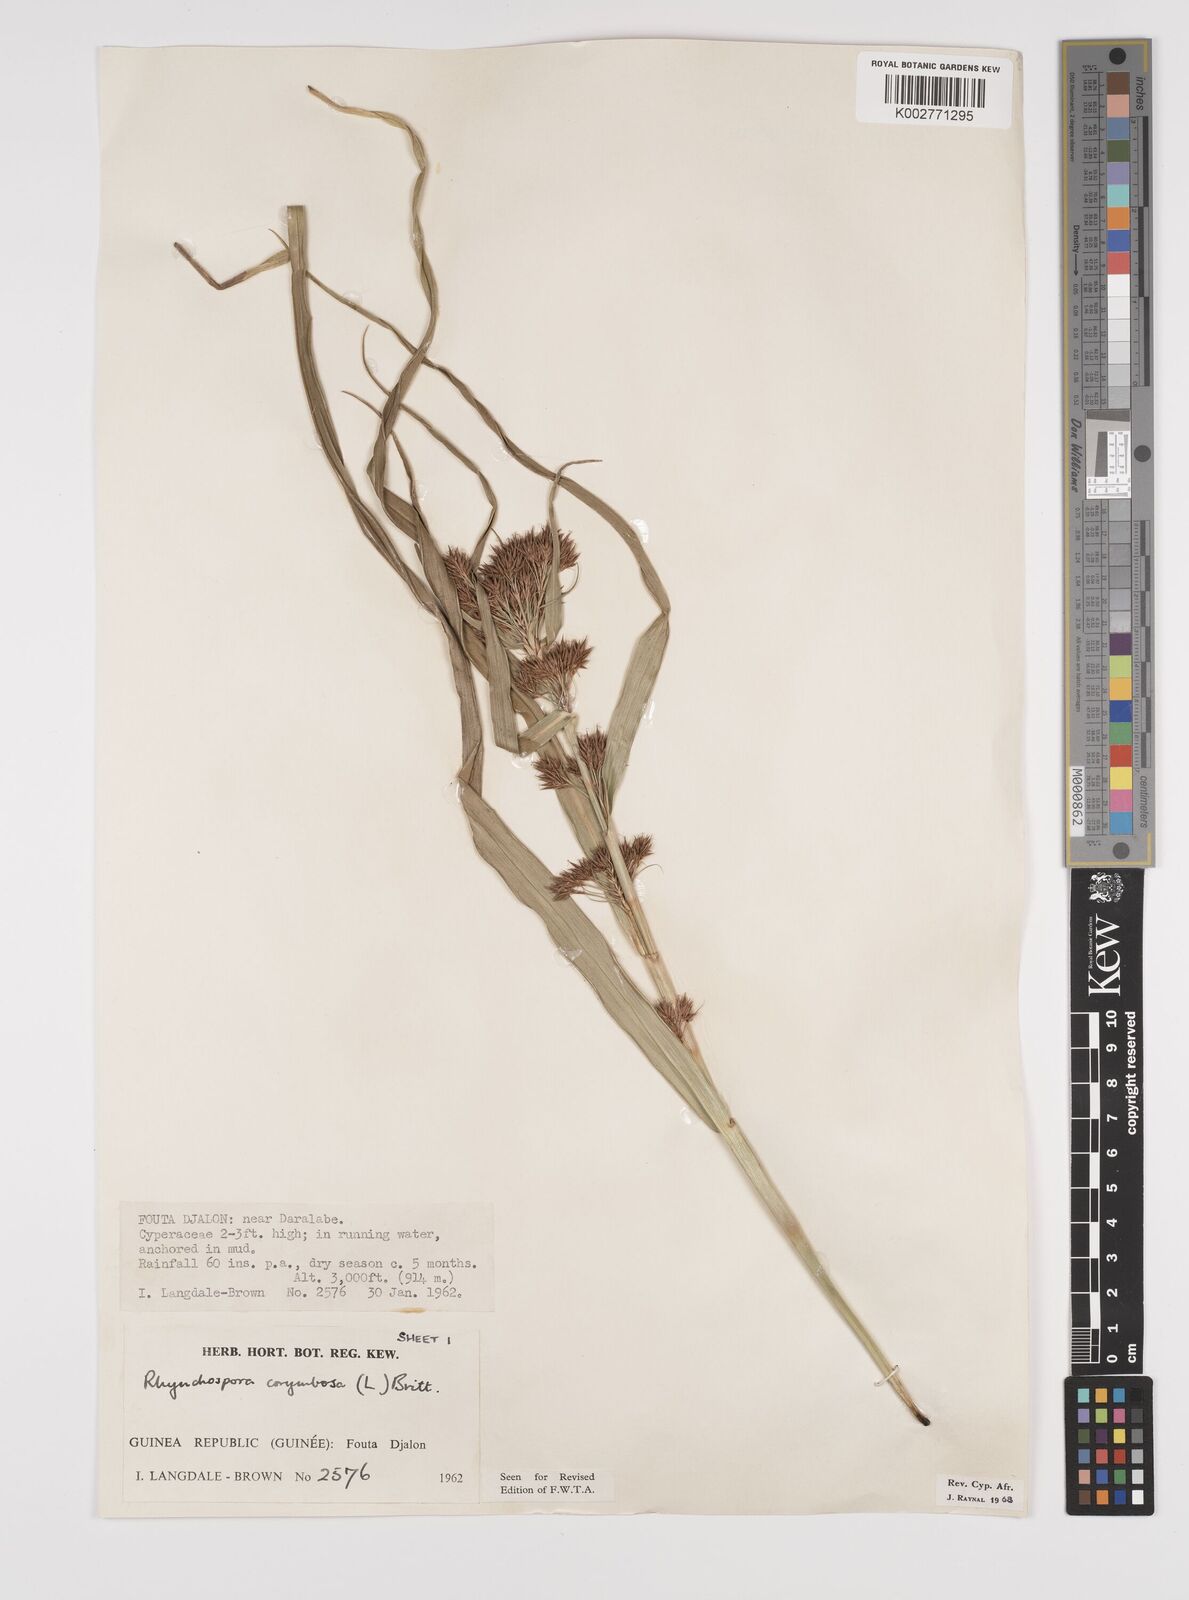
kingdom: Plantae
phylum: Tracheophyta
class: Liliopsida
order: Poales
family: Cyperaceae
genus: Rhynchospora
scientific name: Rhynchospora corymbosa
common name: Golden beak sedge
